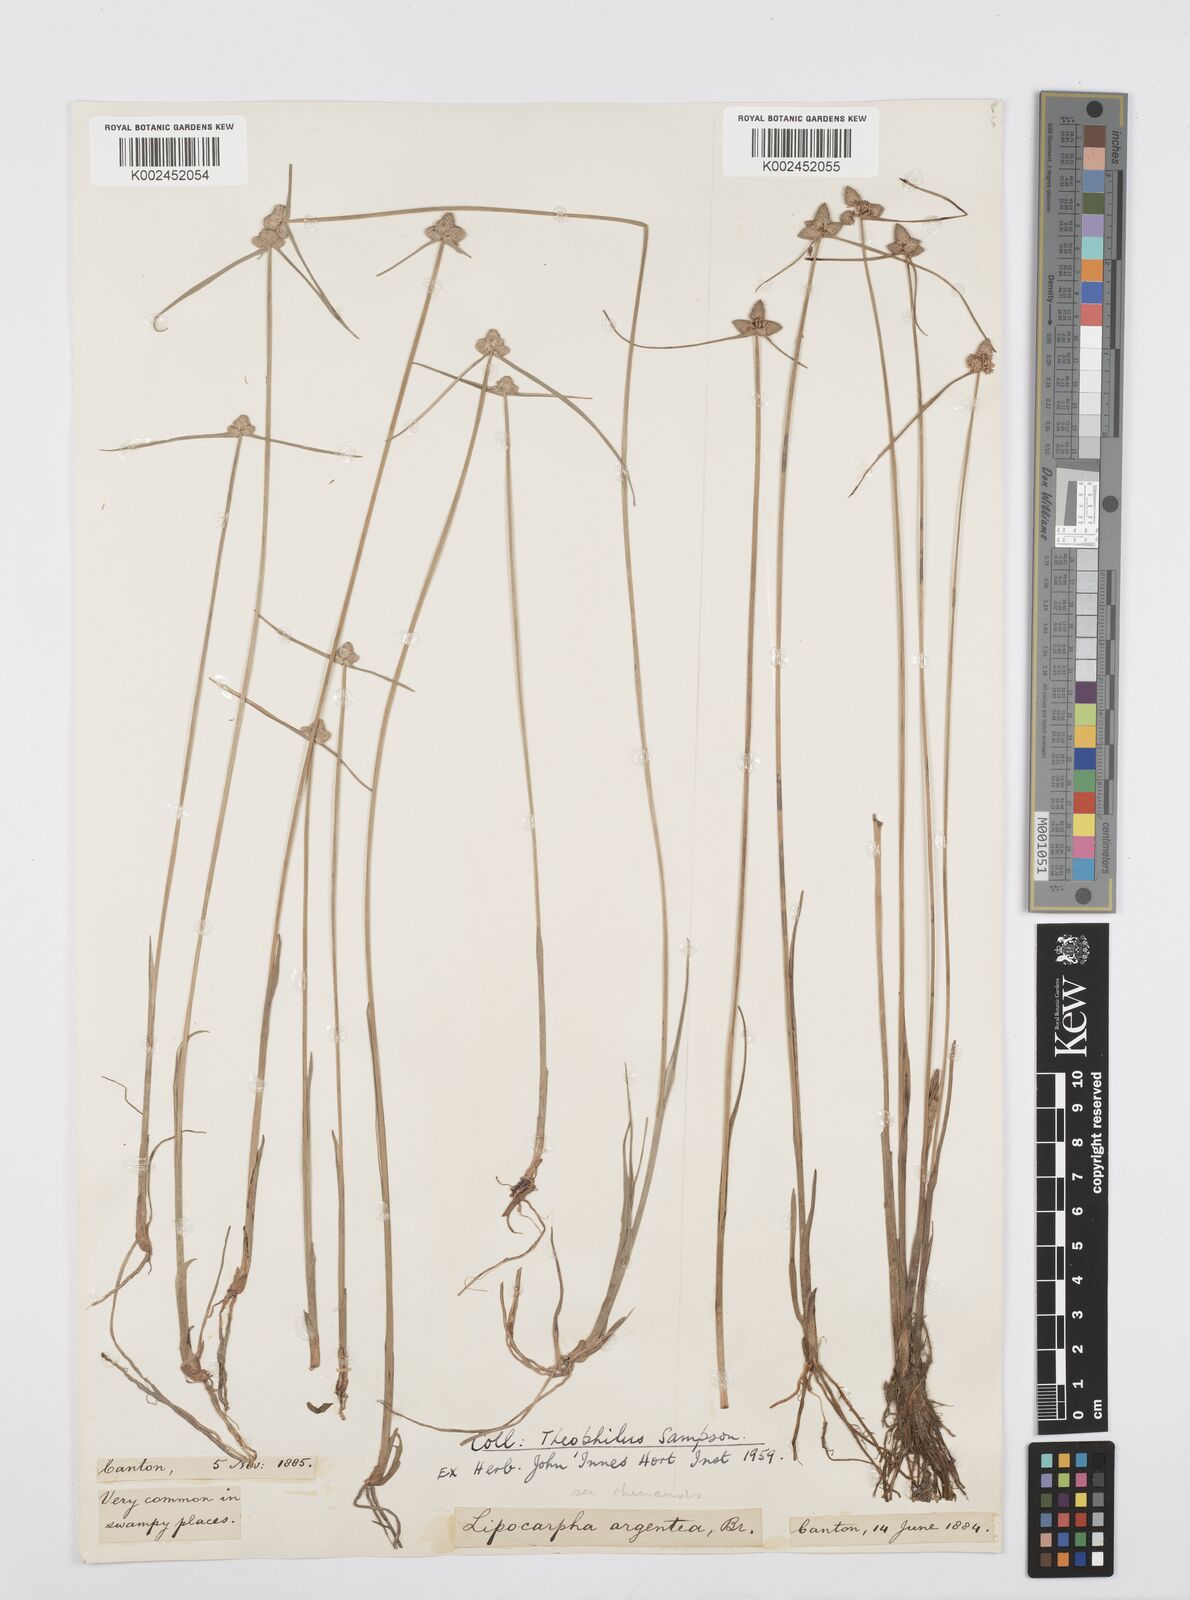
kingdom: Plantae
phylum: Tracheophyta
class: Liliopsida
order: Poales
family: Cyperaceae
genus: Cyperus
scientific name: Cyperus albescens
